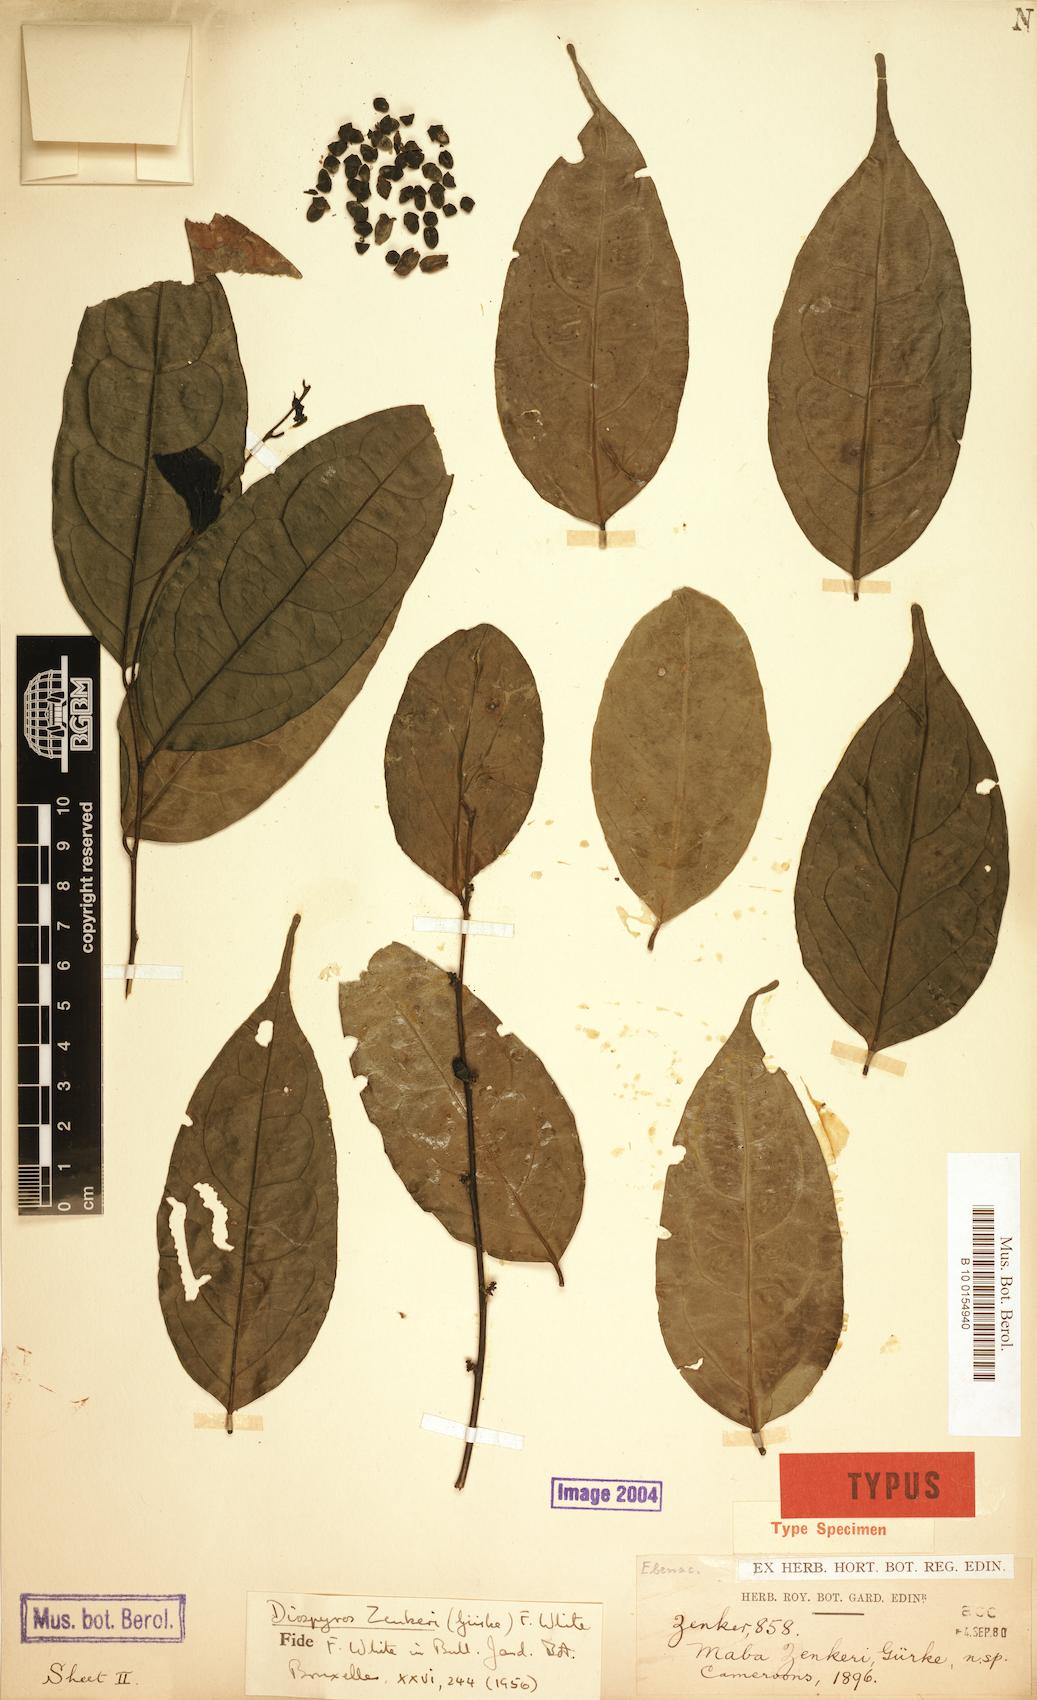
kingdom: Plantae
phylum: Tracheophyta
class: Magnoliopsida
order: Ericales
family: Ebenaceae
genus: Diospyros
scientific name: Diospyros zenkeri
